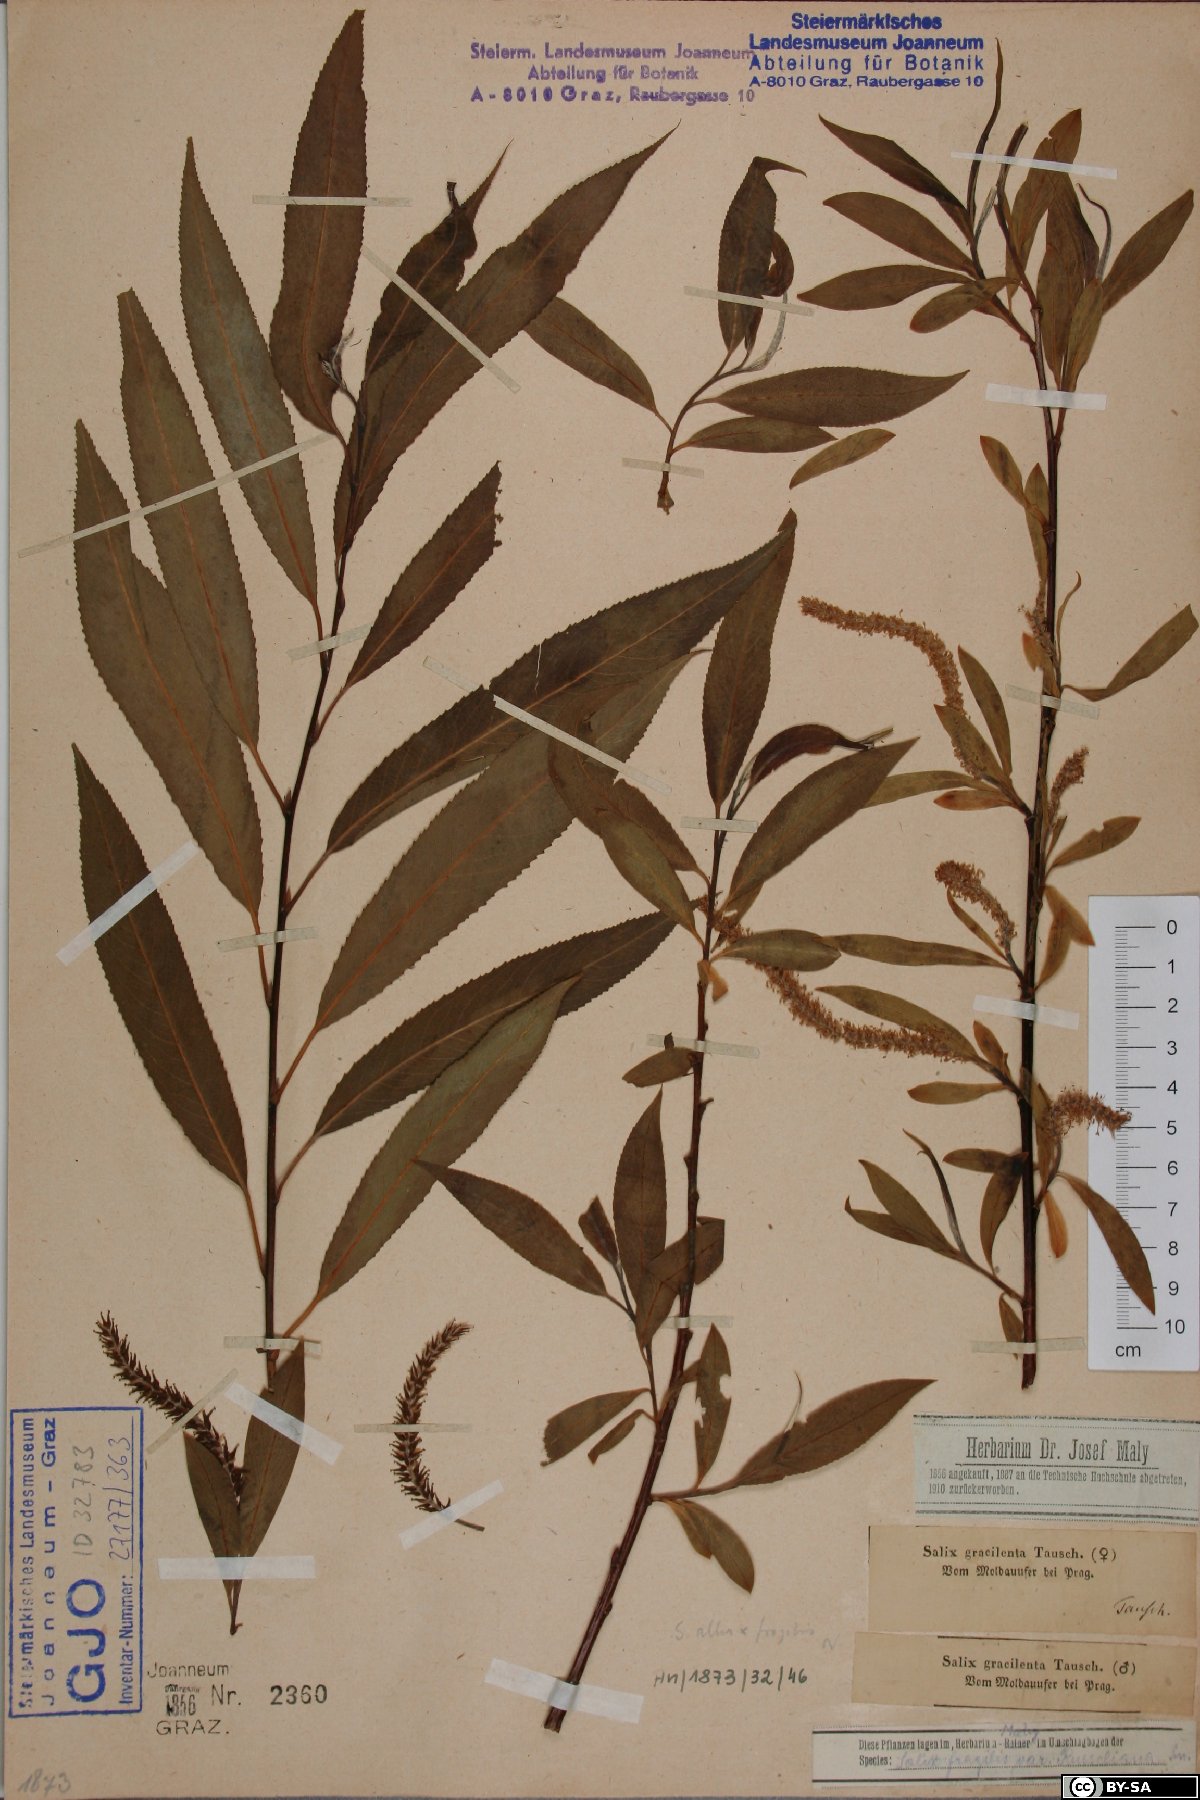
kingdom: Plantae
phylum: Tracheophyta
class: Magnoliopsida
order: Malpighiales
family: Salicaceae
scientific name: Salicaceae
